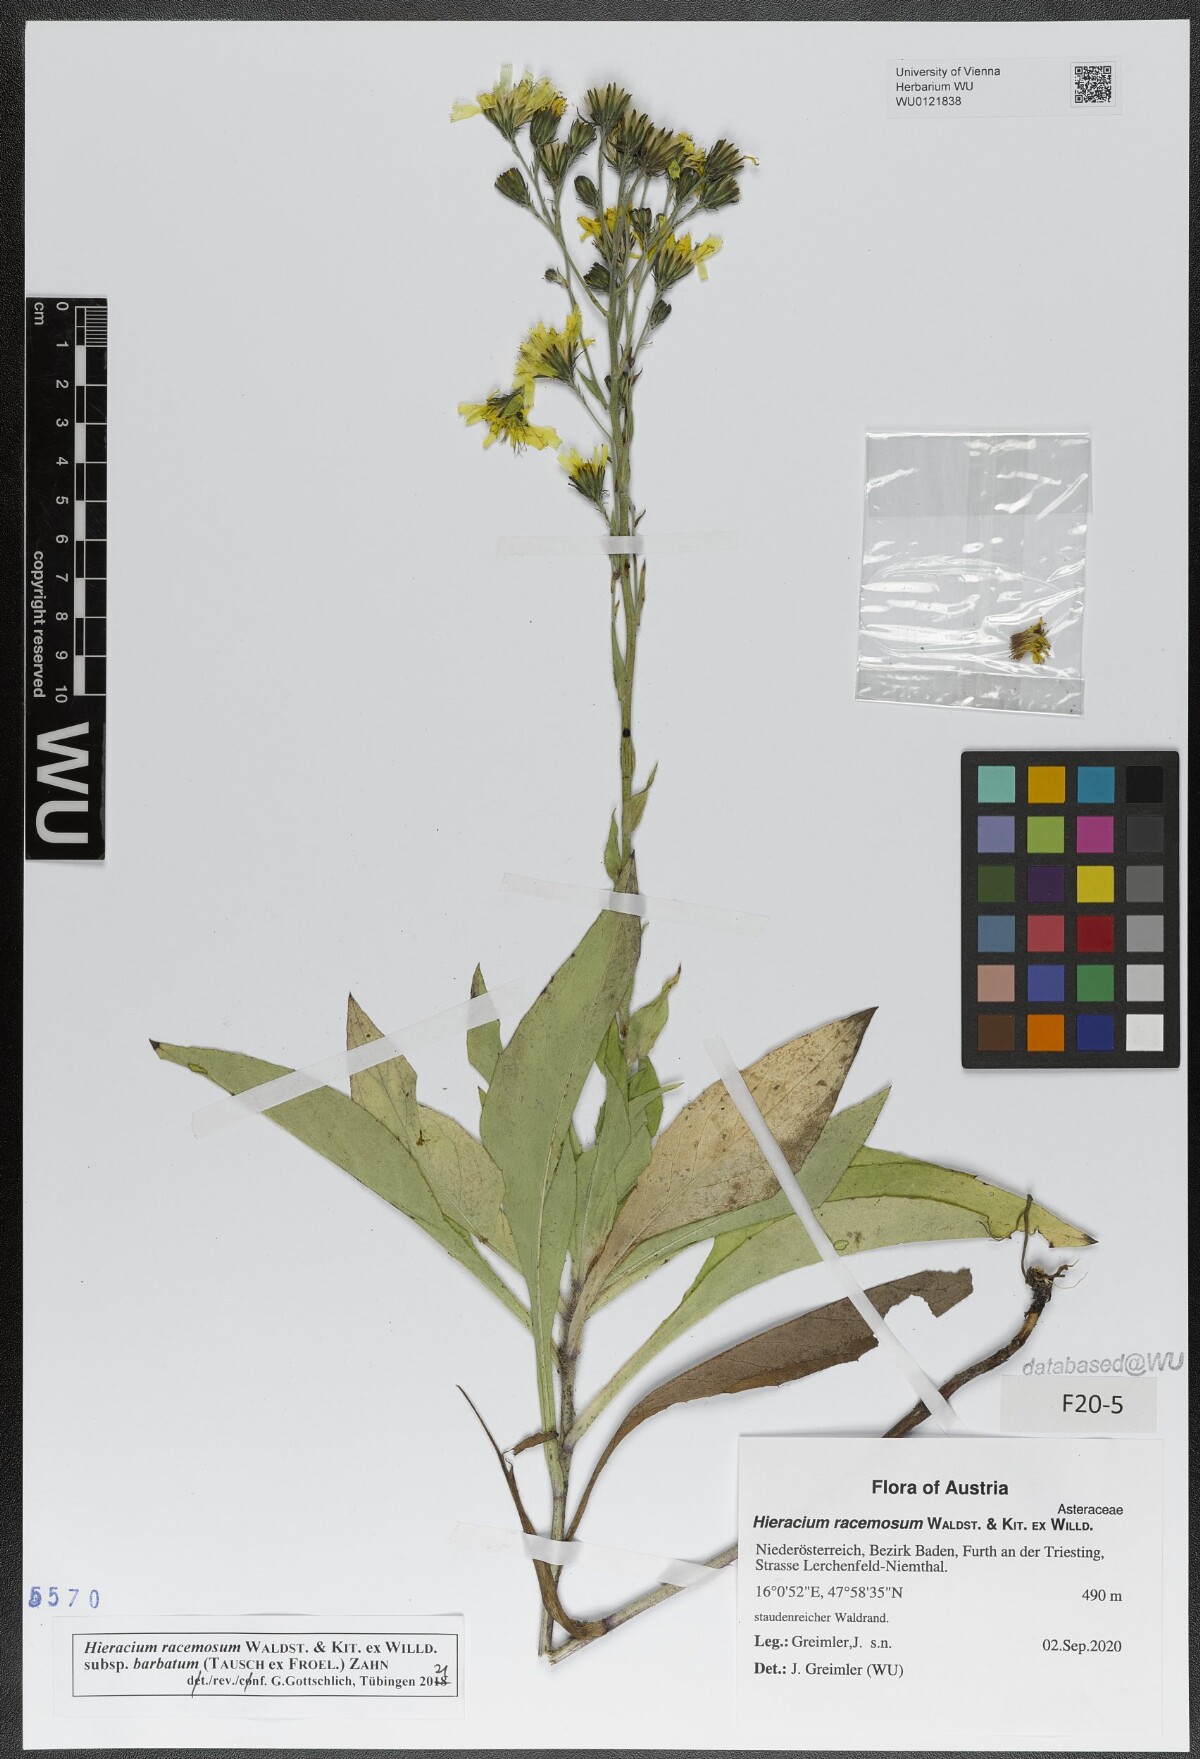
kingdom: Plantae
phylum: Tracheophyta
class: Magnoliopsida
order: Asterales
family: Asteraceae
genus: Hieracium
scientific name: Hieracium racemosum
